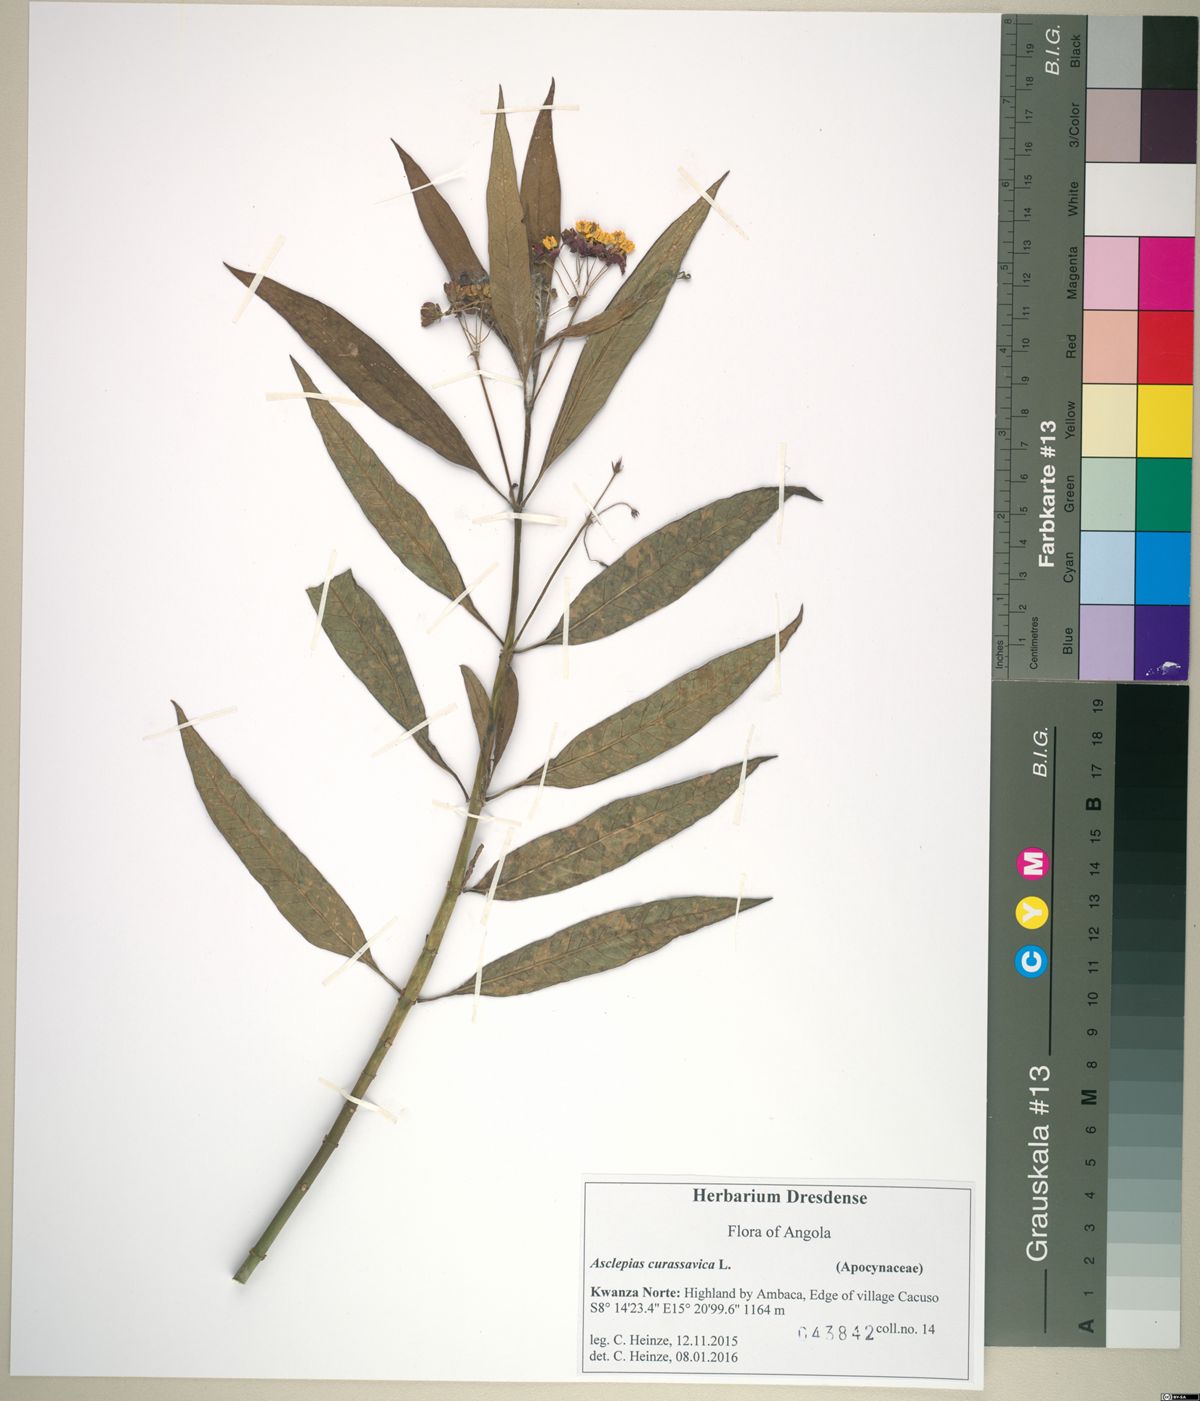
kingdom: Plantae
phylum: Tracheophyta
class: Magnoliopsida
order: Gentianales
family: Apocynaceae
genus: Asclepias
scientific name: Asclepias curassavica
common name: Bloodflower
